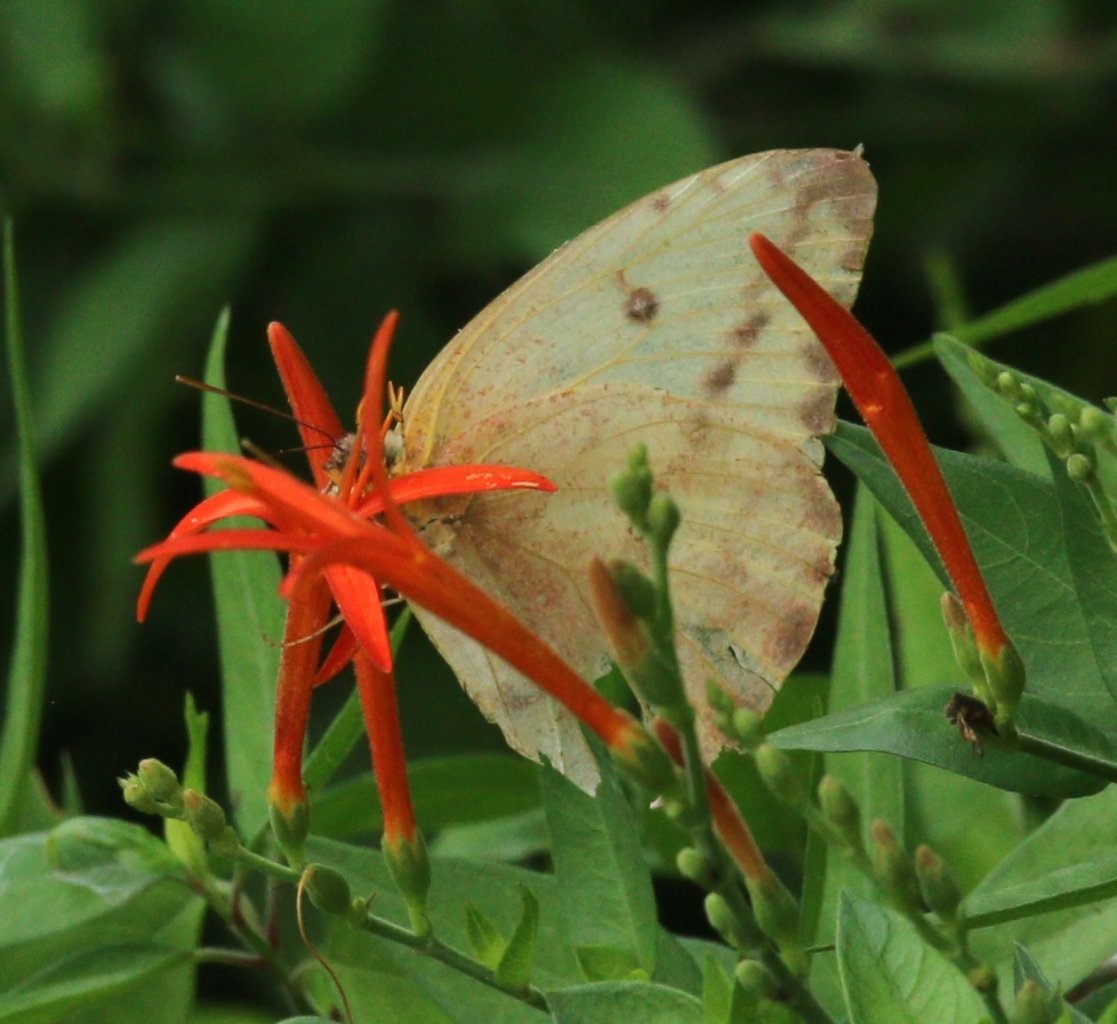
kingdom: Animalia
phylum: Arthropoda
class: Insecta
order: Lepidoptera
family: Pieridae
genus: Phoebis
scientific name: Phoebis agarithe
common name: Large Orange Sulphur
